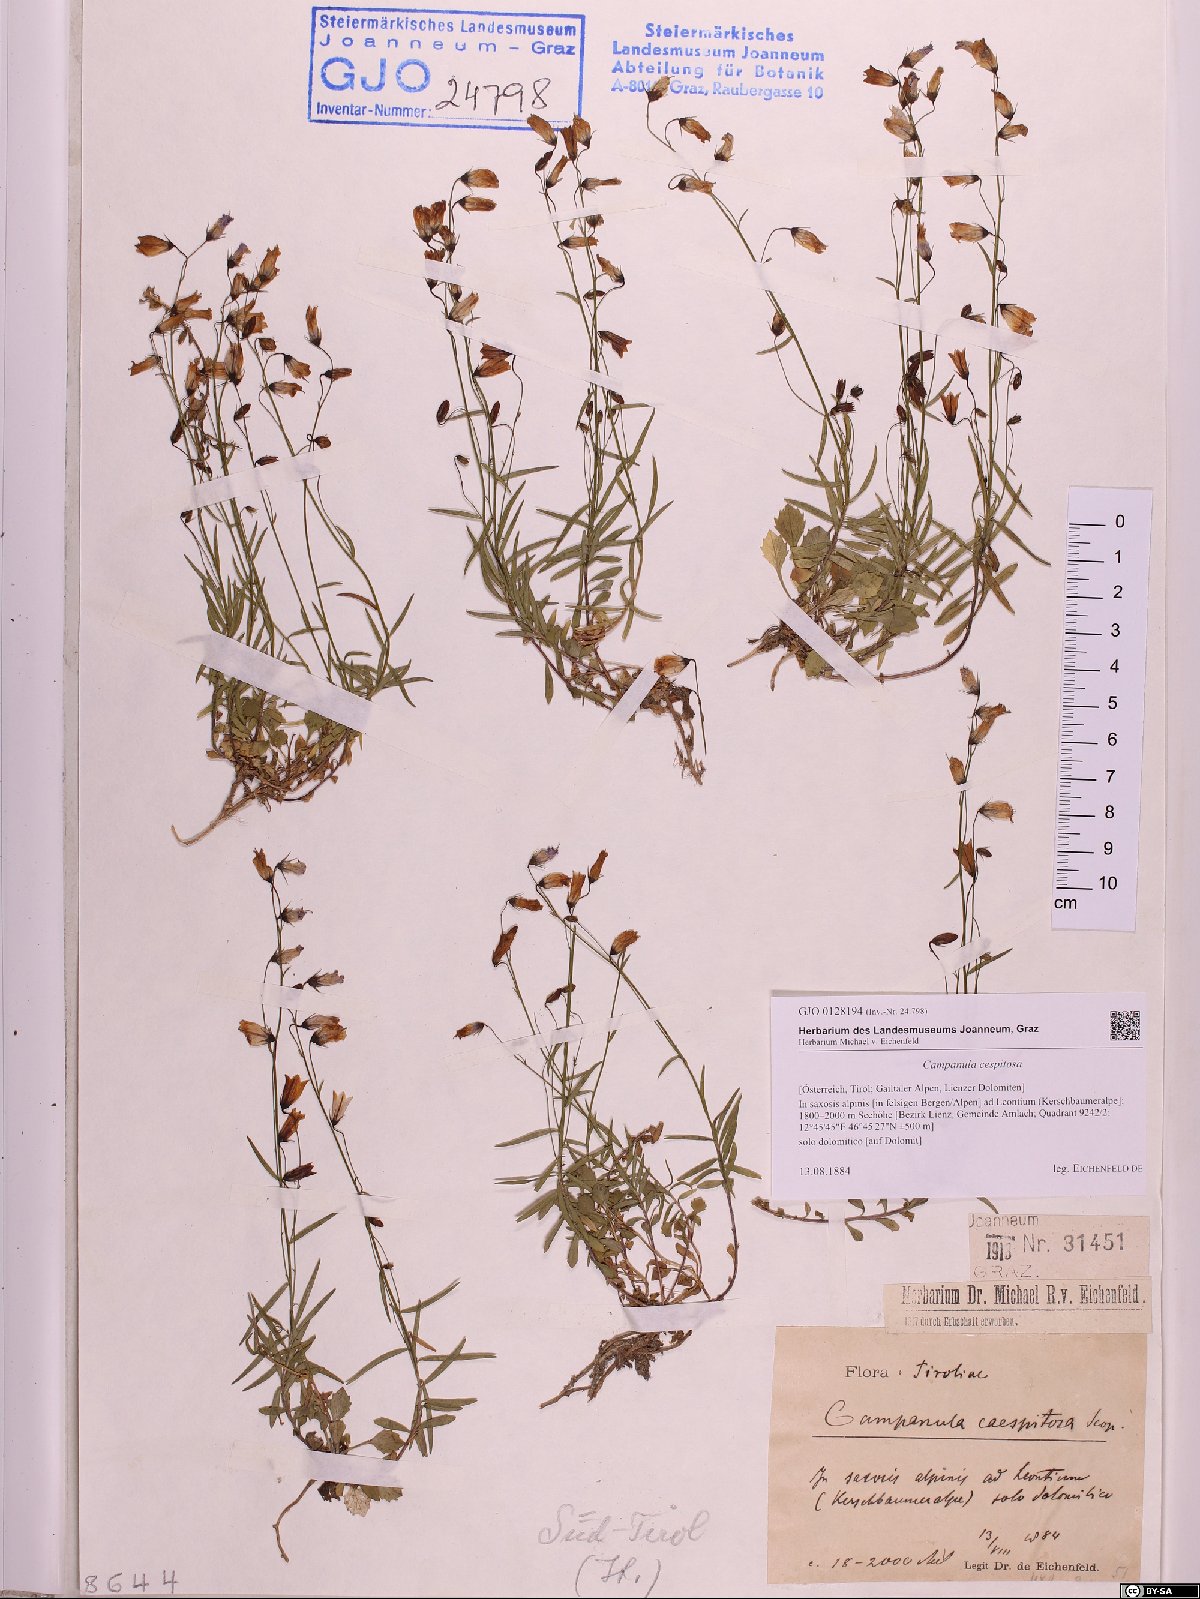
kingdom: Plantae
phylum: Tracheophyta
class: Magnoliopsida
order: Asterales
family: Campanulaceae
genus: Campanula
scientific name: Campanula cespitosa
